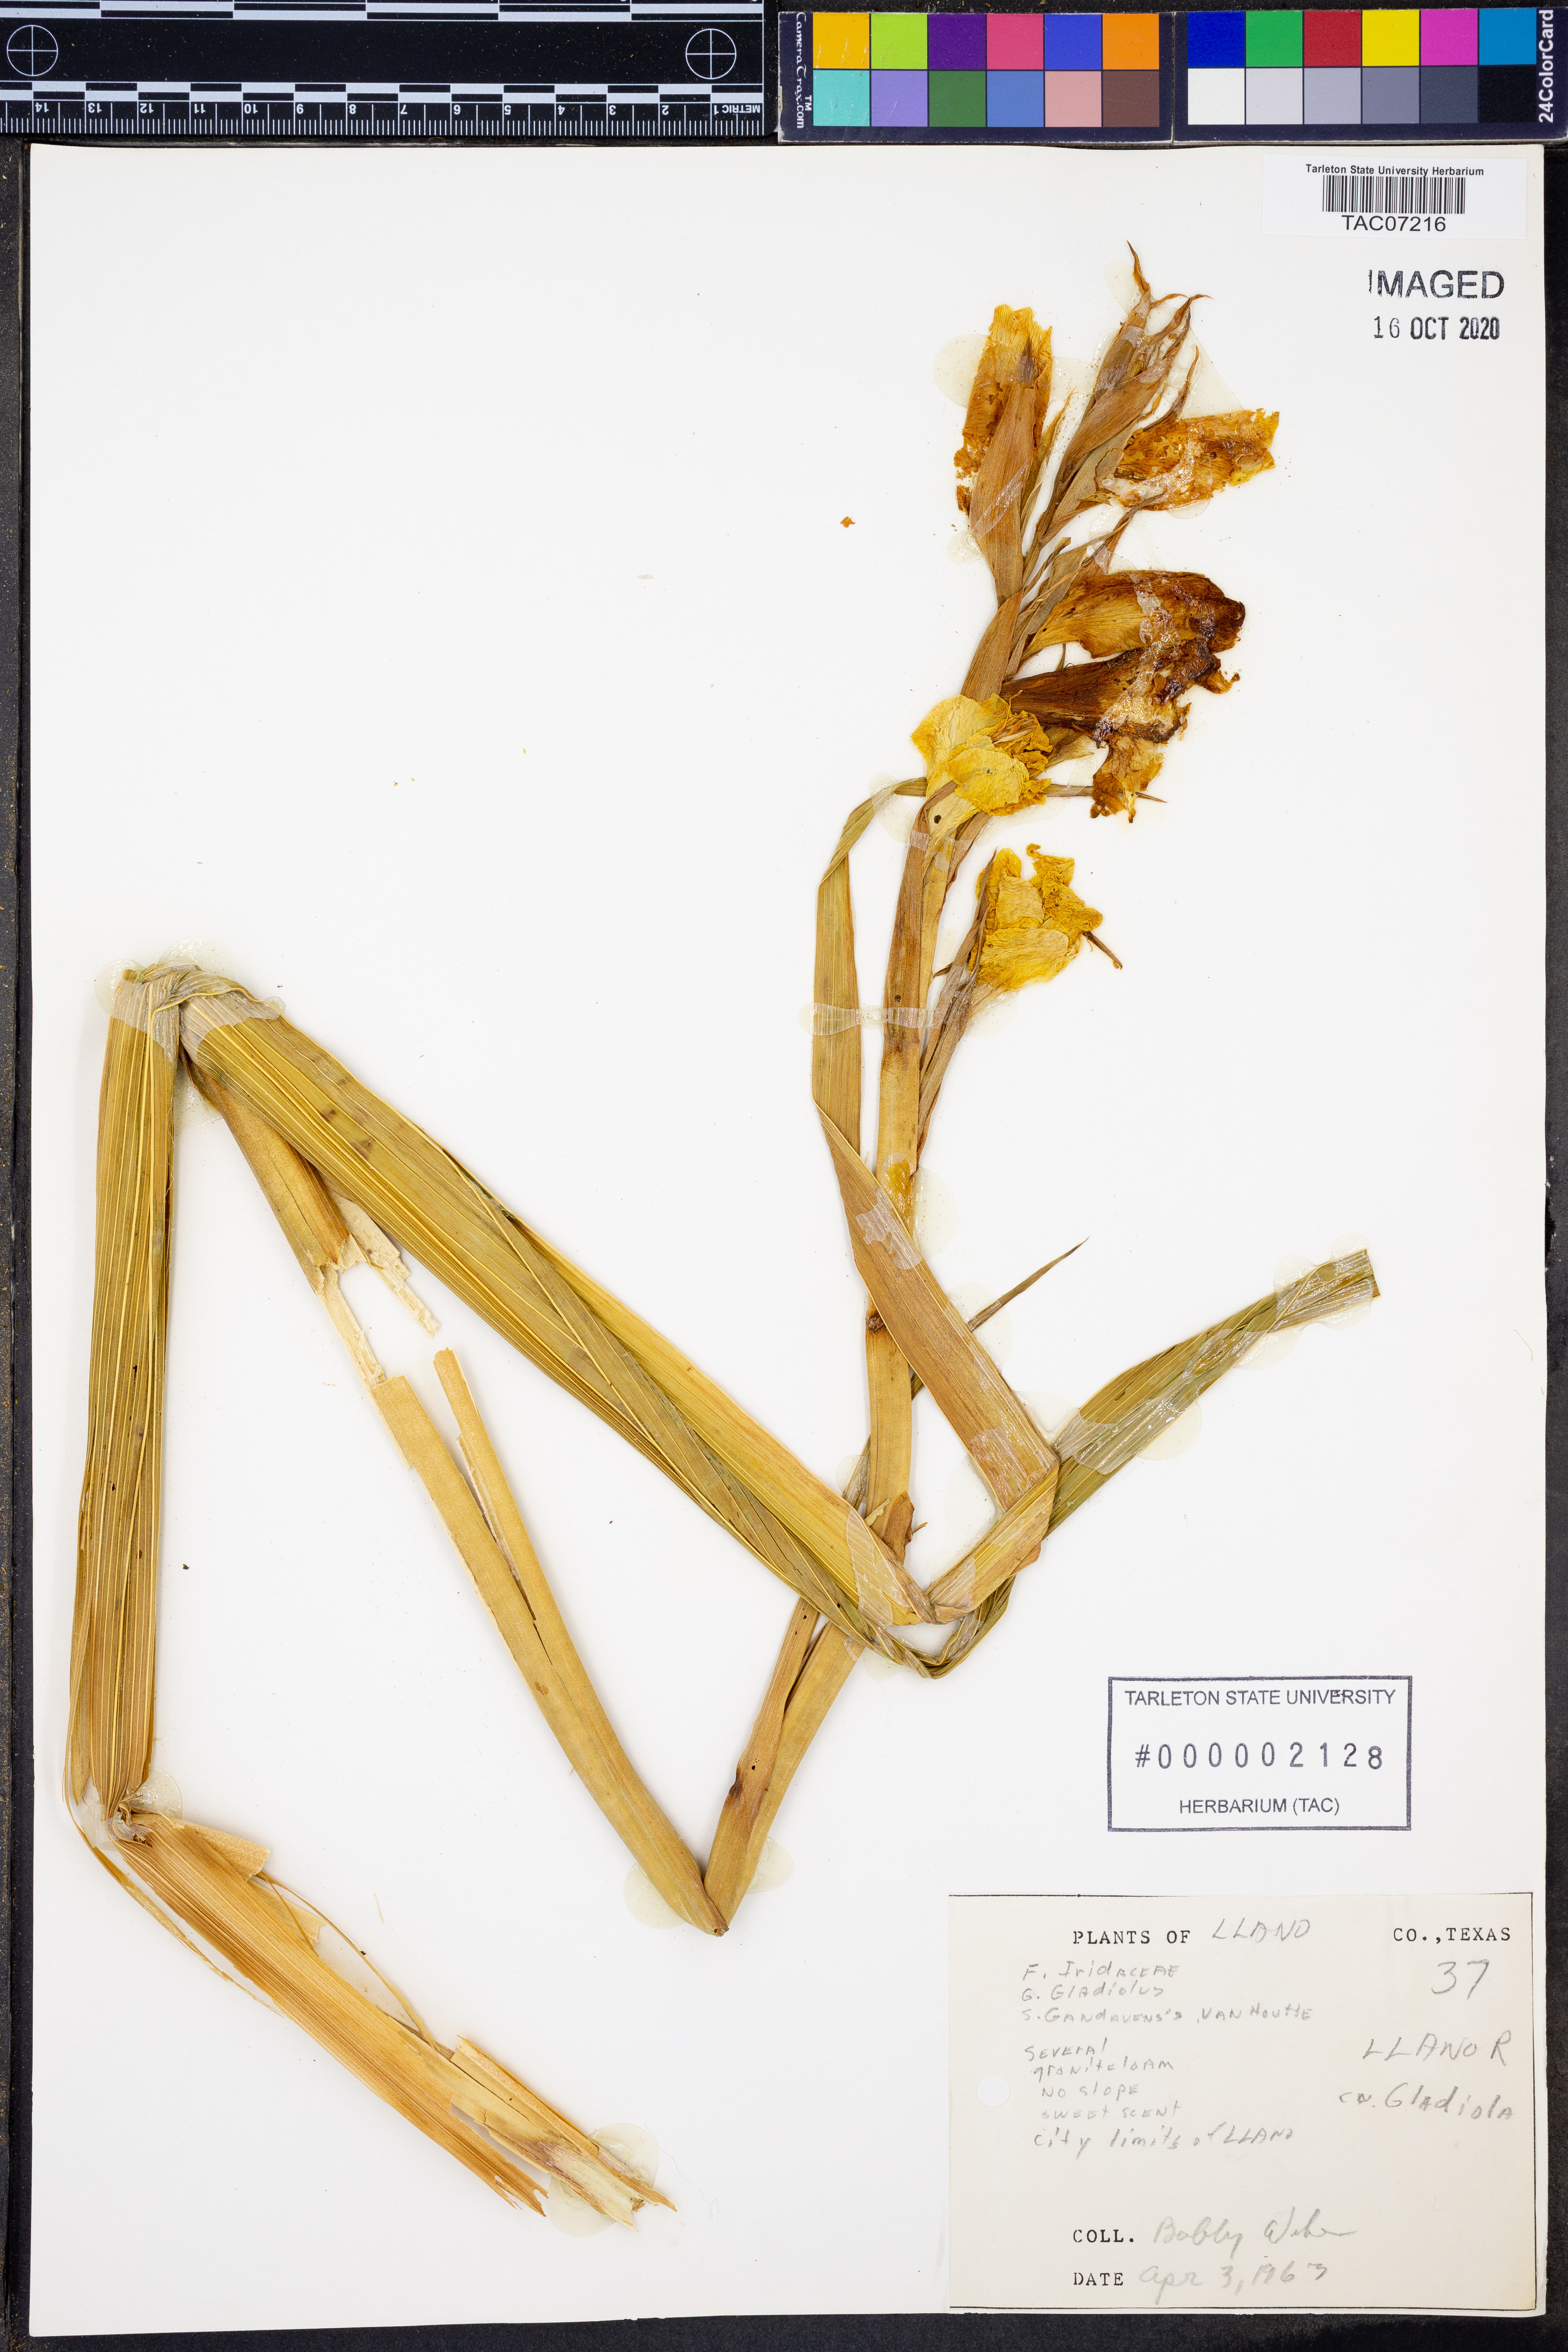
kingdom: Plantae
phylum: Tracheophyta
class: Liliopsida
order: Asparagales
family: Iridaceae
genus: Gladiolus
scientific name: Gladiolus gandavensis
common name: Gladiolus
